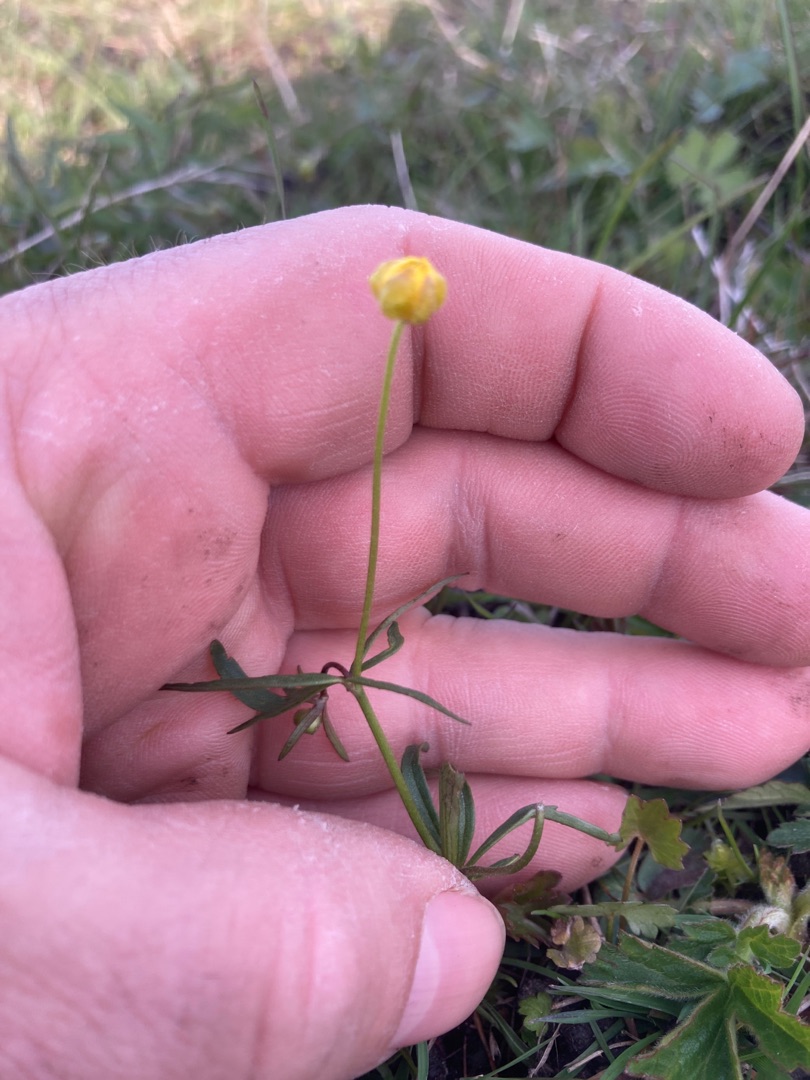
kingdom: Plantae
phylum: Tracheophyta
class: Magnoliopsida
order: Ranunculales
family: Ranunculaceae
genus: Ranunculus
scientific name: Ranunculus auricomus
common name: Nyrebladet ranunkel
